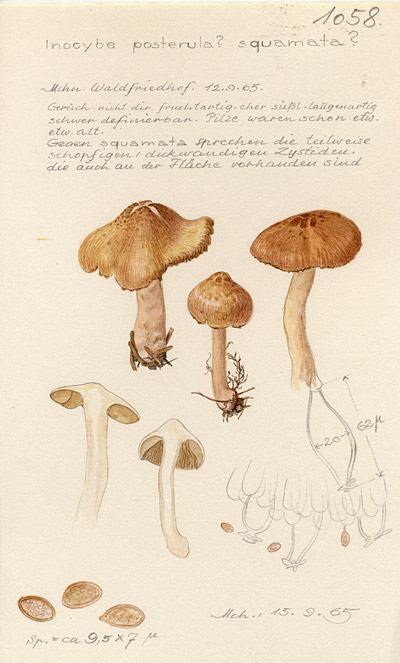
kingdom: Fungi
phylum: Basidiomycota
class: Agaricomycetes
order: Agaricales
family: Inocybaceae
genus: Inocybe
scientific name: Inocybe posterula
